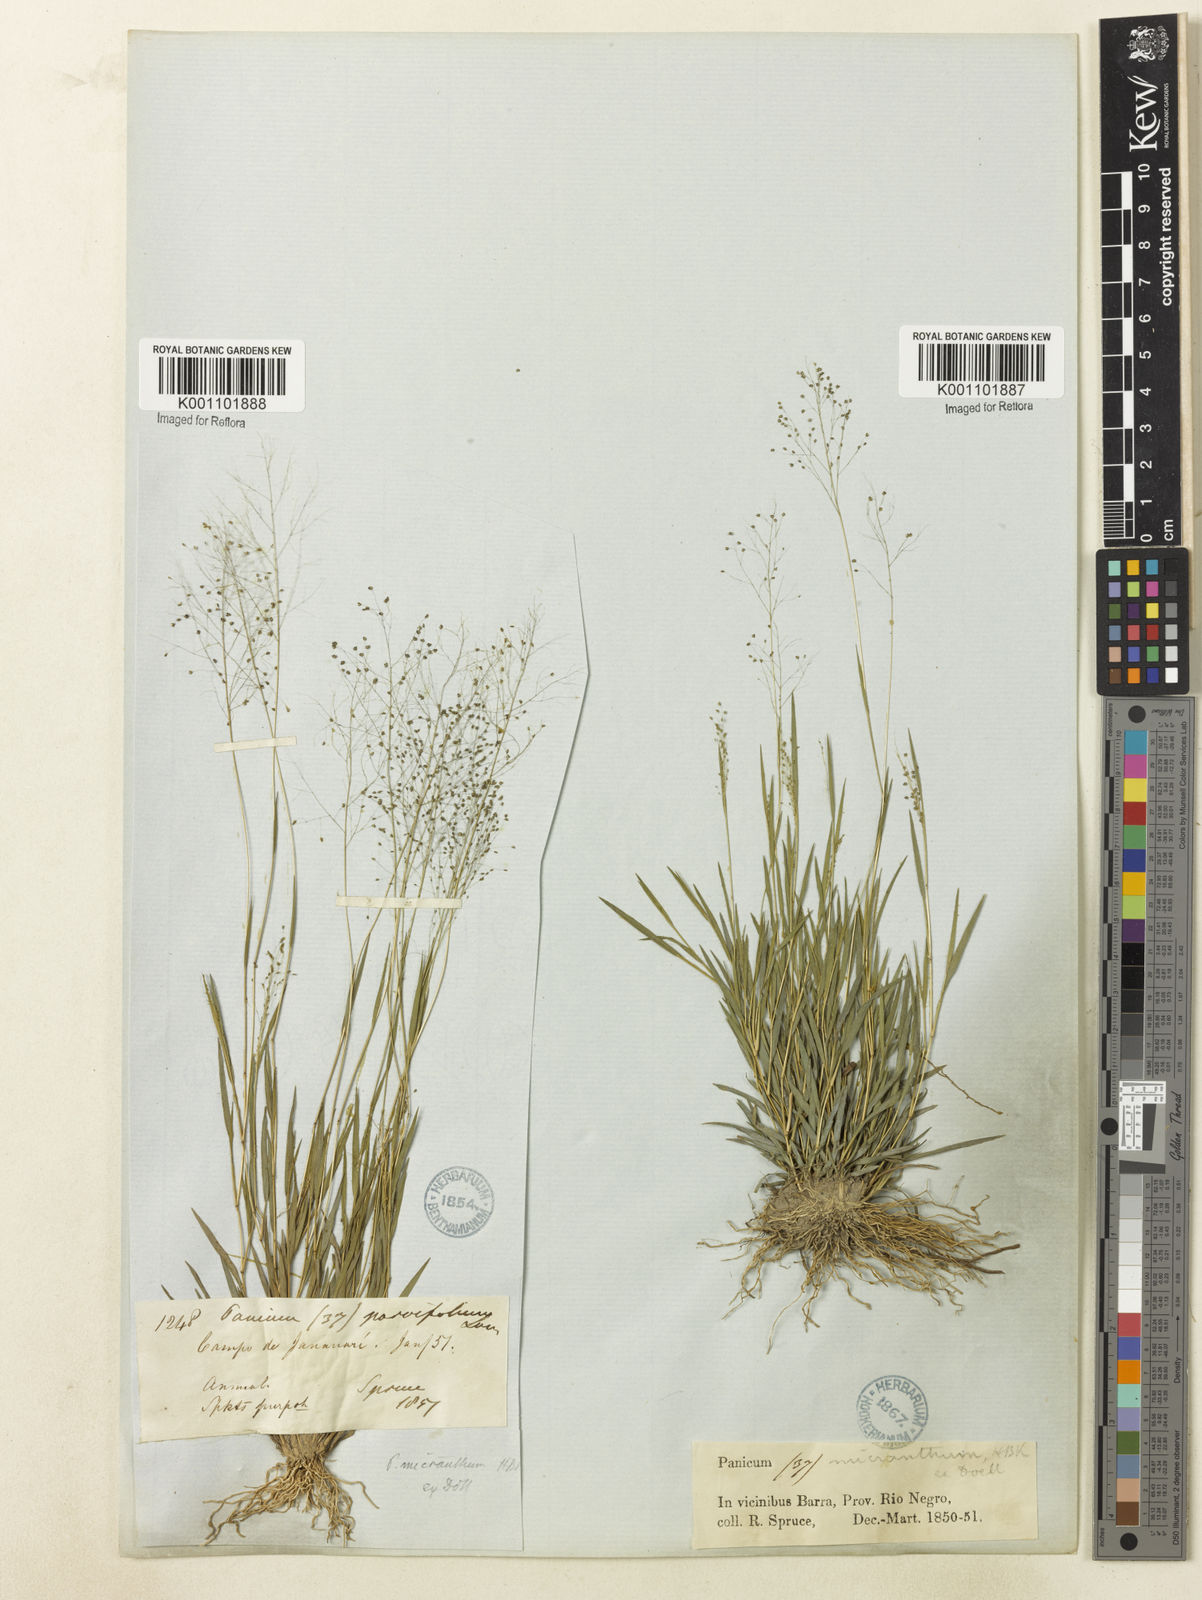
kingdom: Plantae
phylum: Tracheophyta
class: Liliopsida
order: Poales
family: Poaceae
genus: Trichanthecium
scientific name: Trichanthecium micranthum
